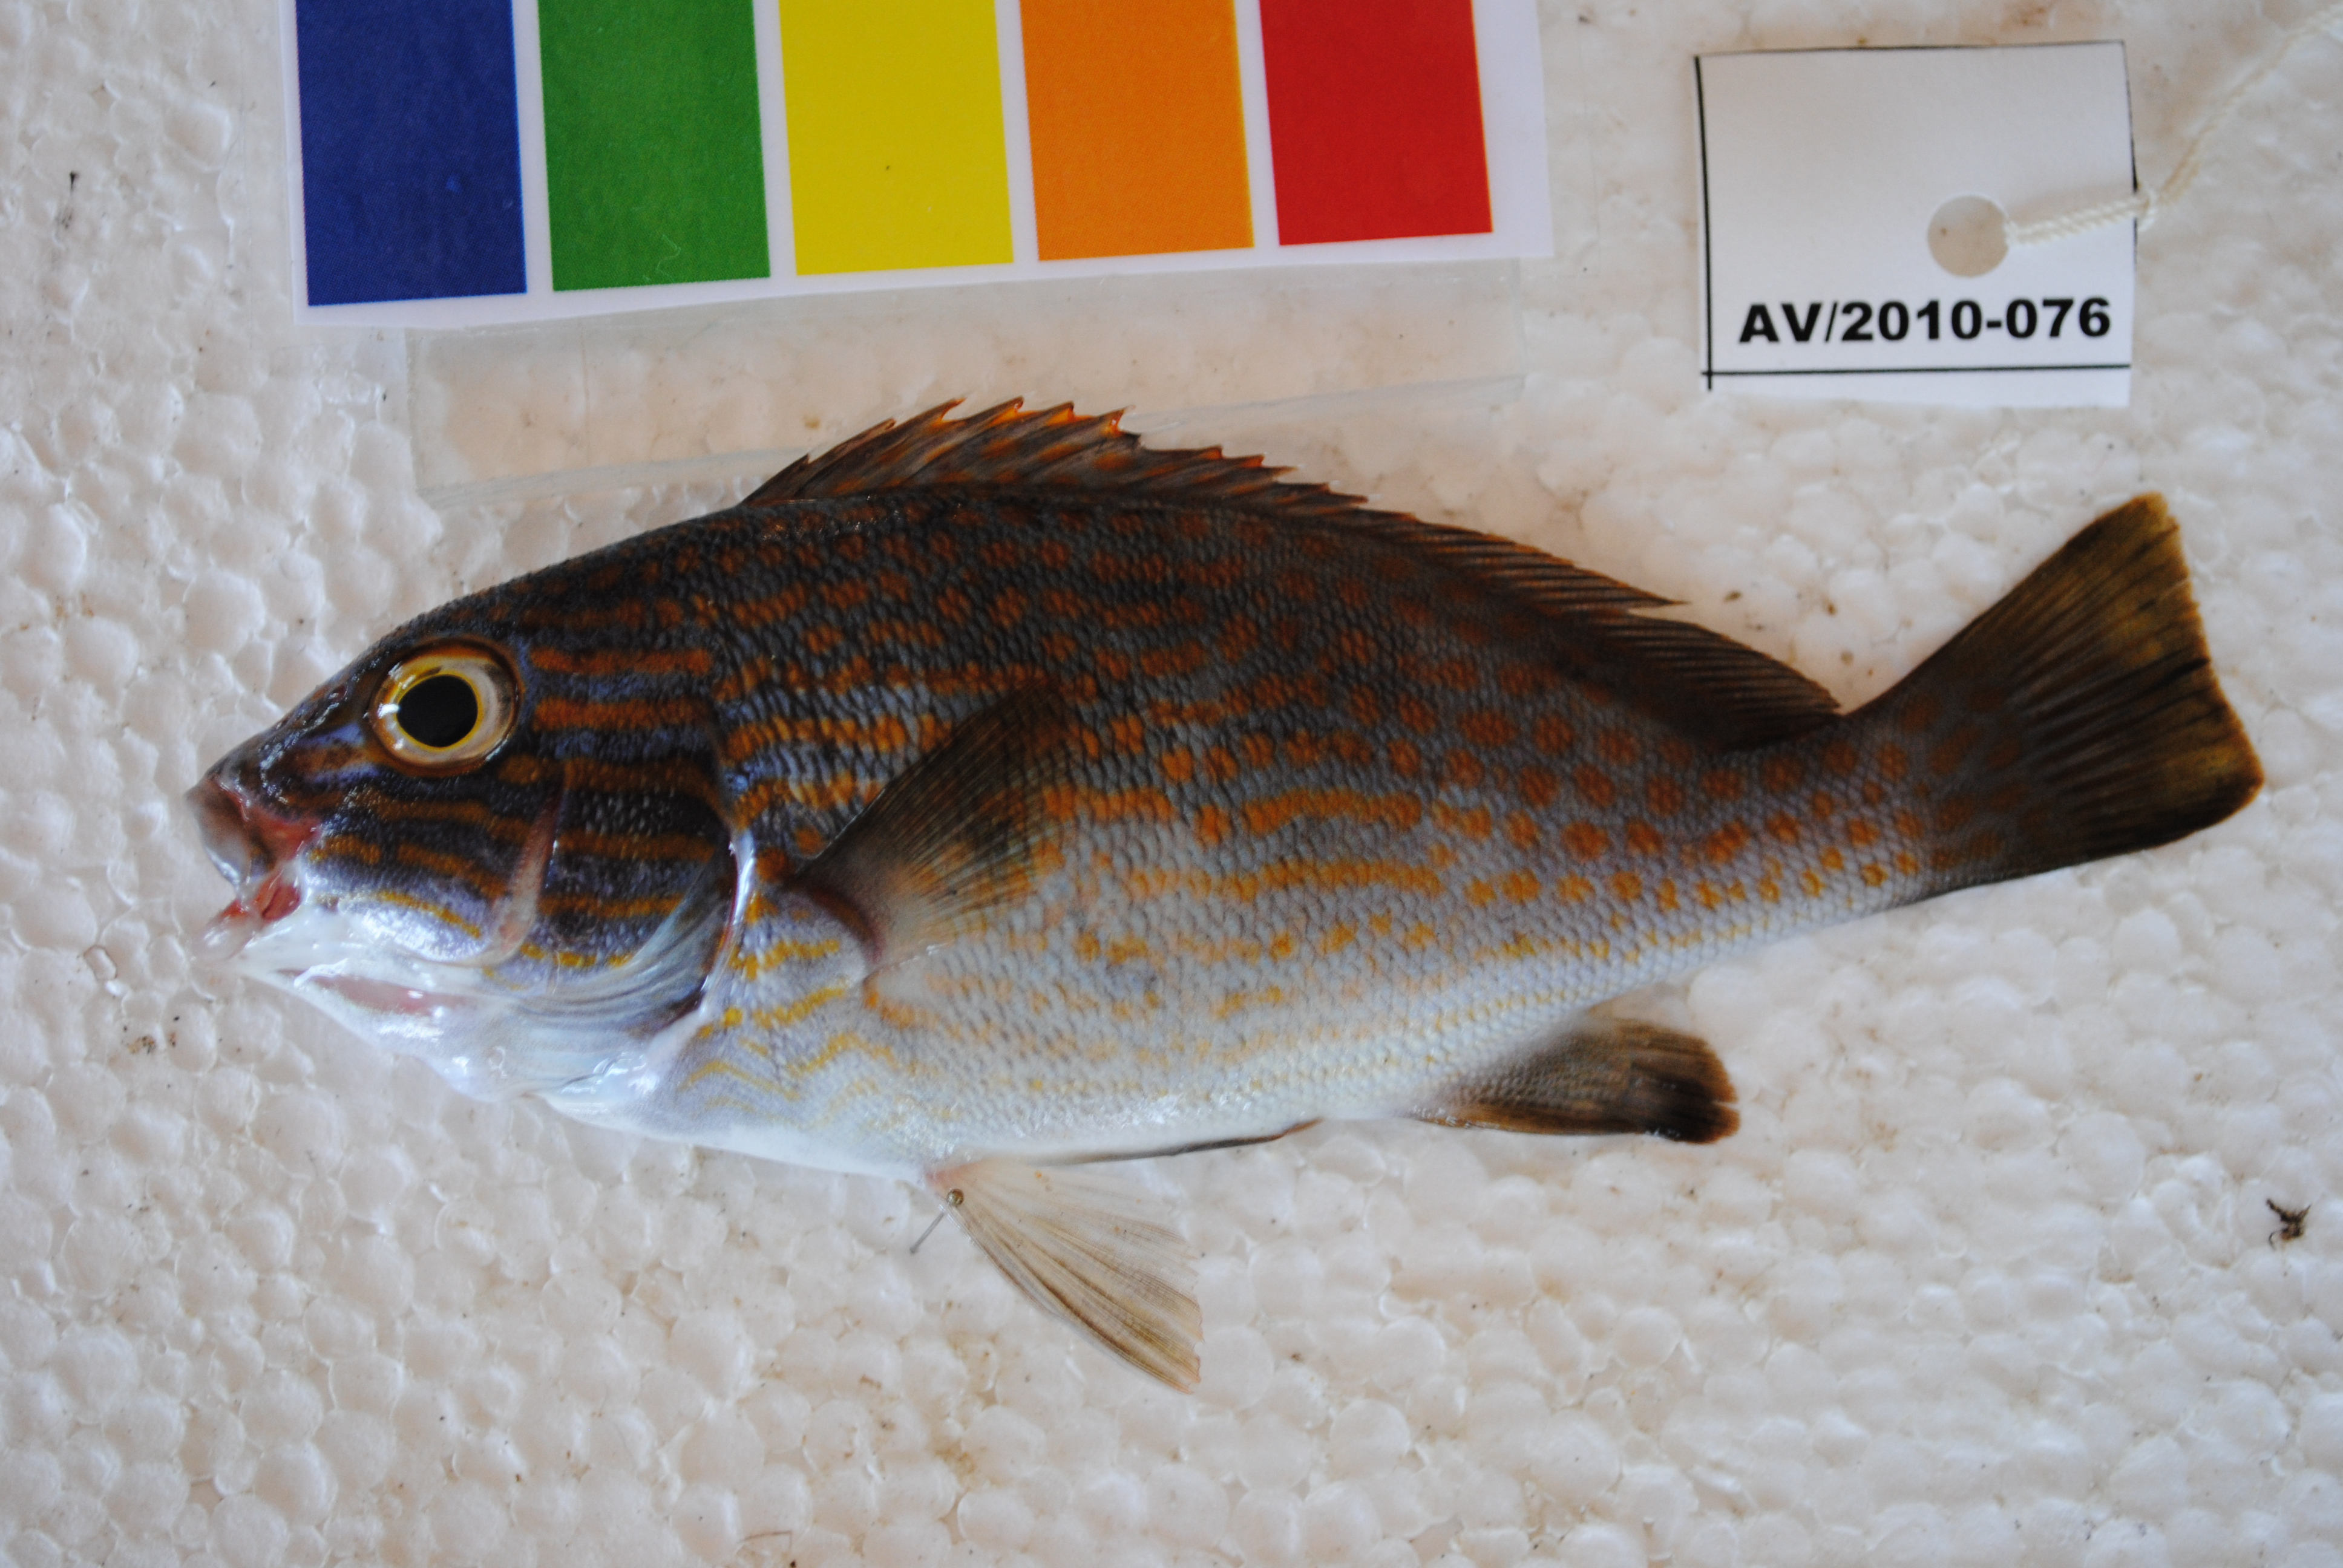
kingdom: Animalia
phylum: Chordata
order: Perciformes
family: Haemulidae
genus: Plectorhinchus
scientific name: Plectorhinchus flavomaculatus
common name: Netted sweetlips
